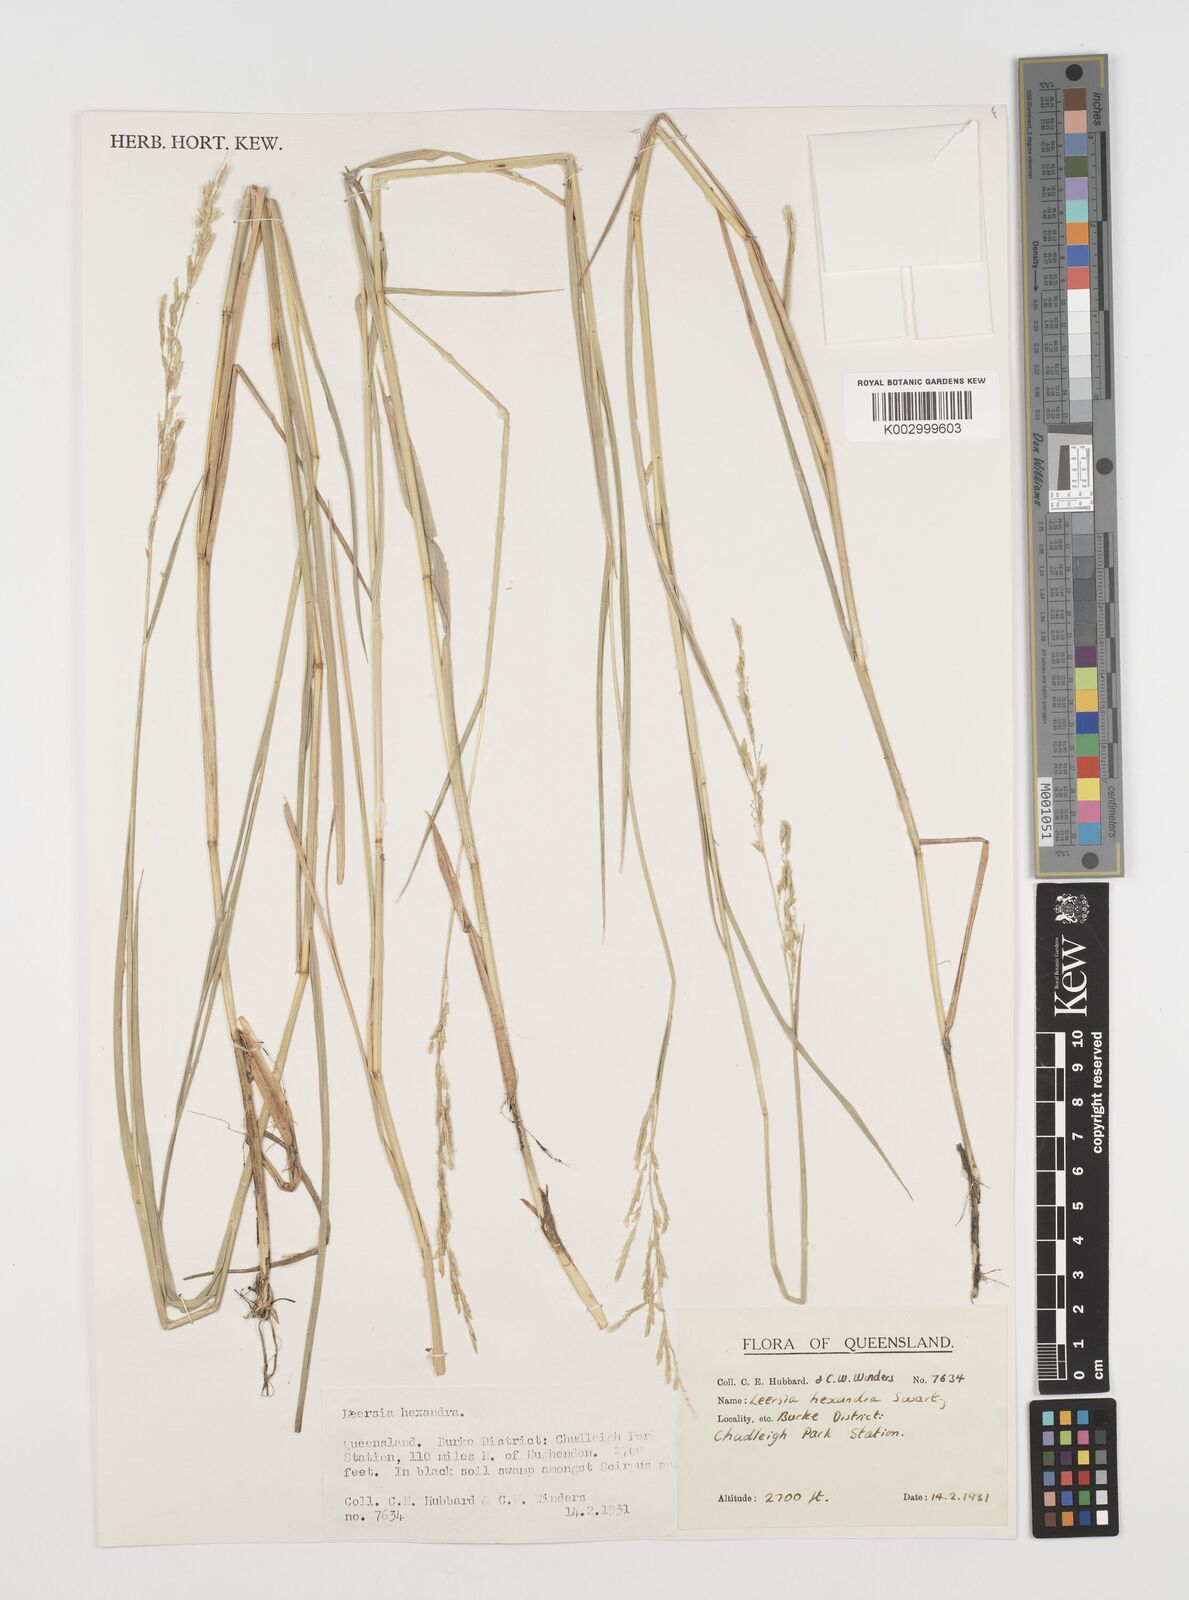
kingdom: Plantae
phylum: Tracheophyta
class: Liliopsida
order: Poales
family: Poaceae
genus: Leersia
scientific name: Leersia hexandra
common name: Southern cut grass
